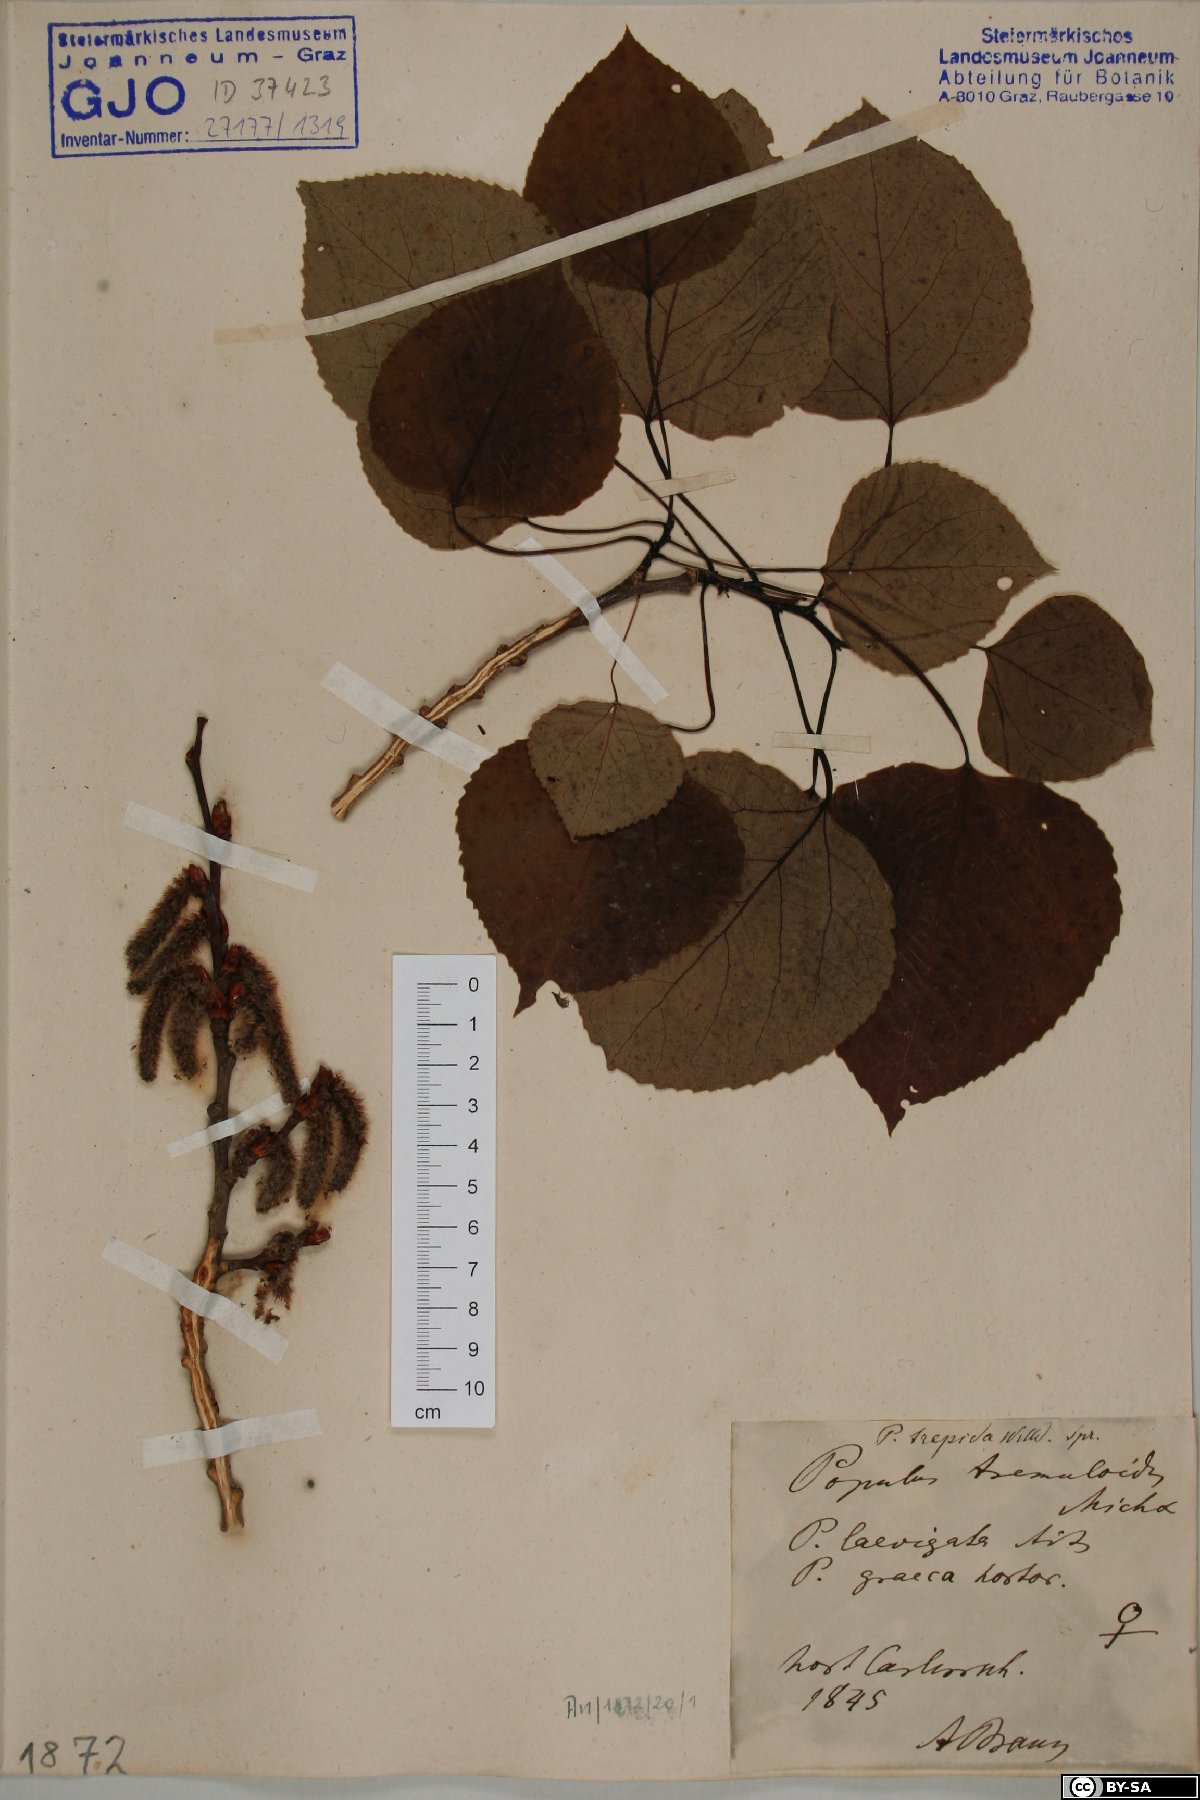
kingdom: Plantae
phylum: Tracheophyta
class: Magnoliopsida
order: Malpighiales
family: Salicaceae
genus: Populus
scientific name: Populus tremuloides
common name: Quaking aspen
